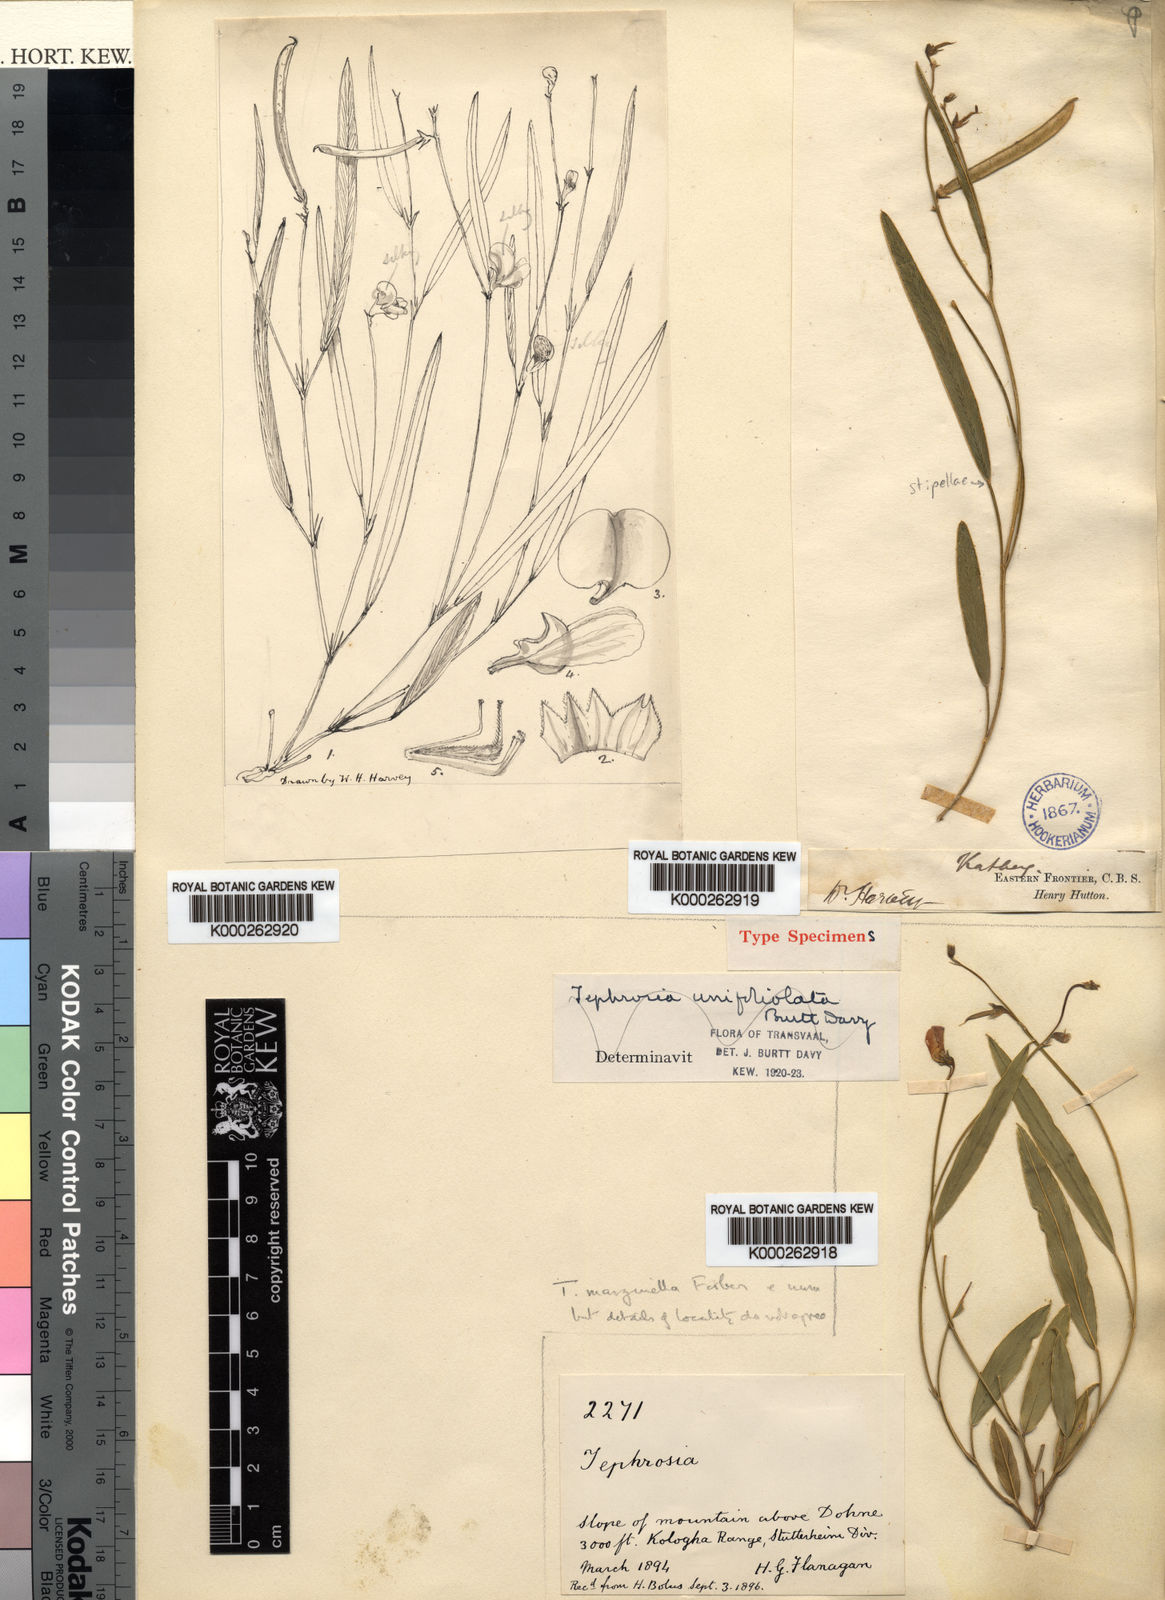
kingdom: Plantae
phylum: Tracheophyta
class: Magnoliopsida
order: Fabales
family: Fabaceae
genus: Tephrosia
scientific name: Tephrosia
